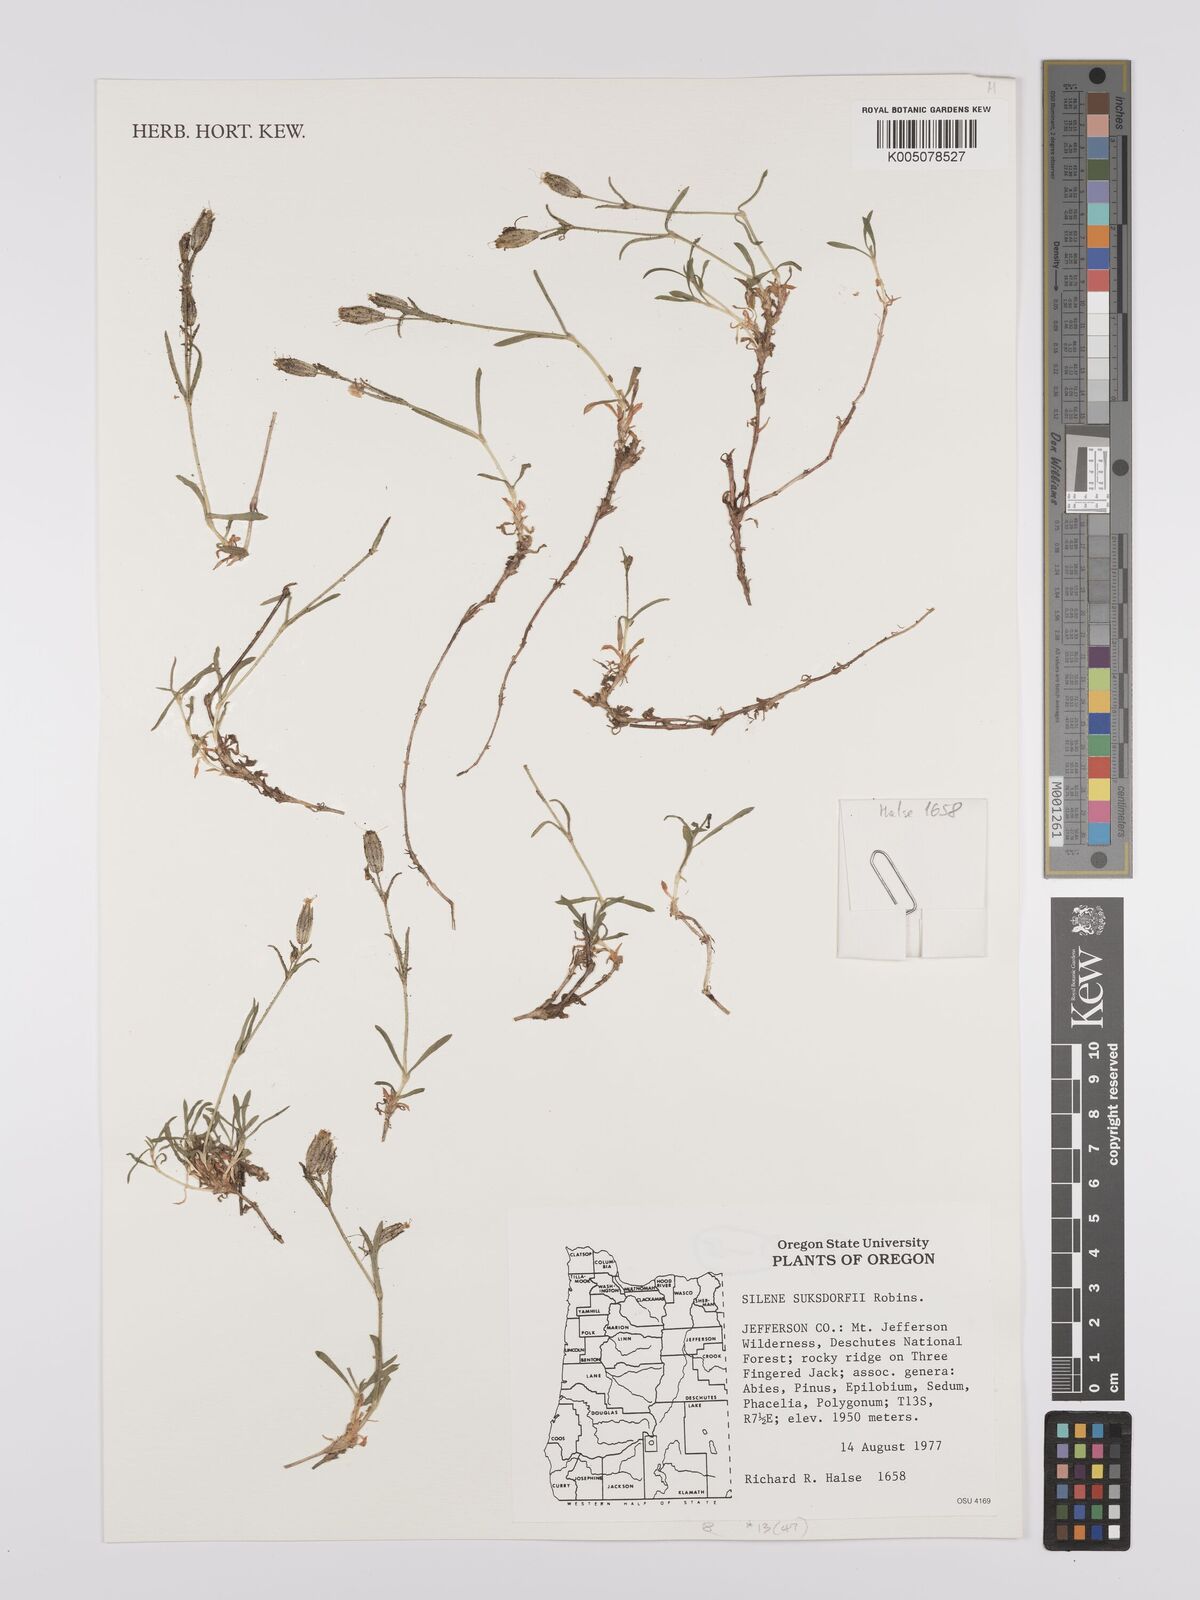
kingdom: Plantae
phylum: Tracheophyta
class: Magnoliopsida
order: Caryophyllales
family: Caryophyllaceae
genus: Silene
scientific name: Silene suksdorfii
